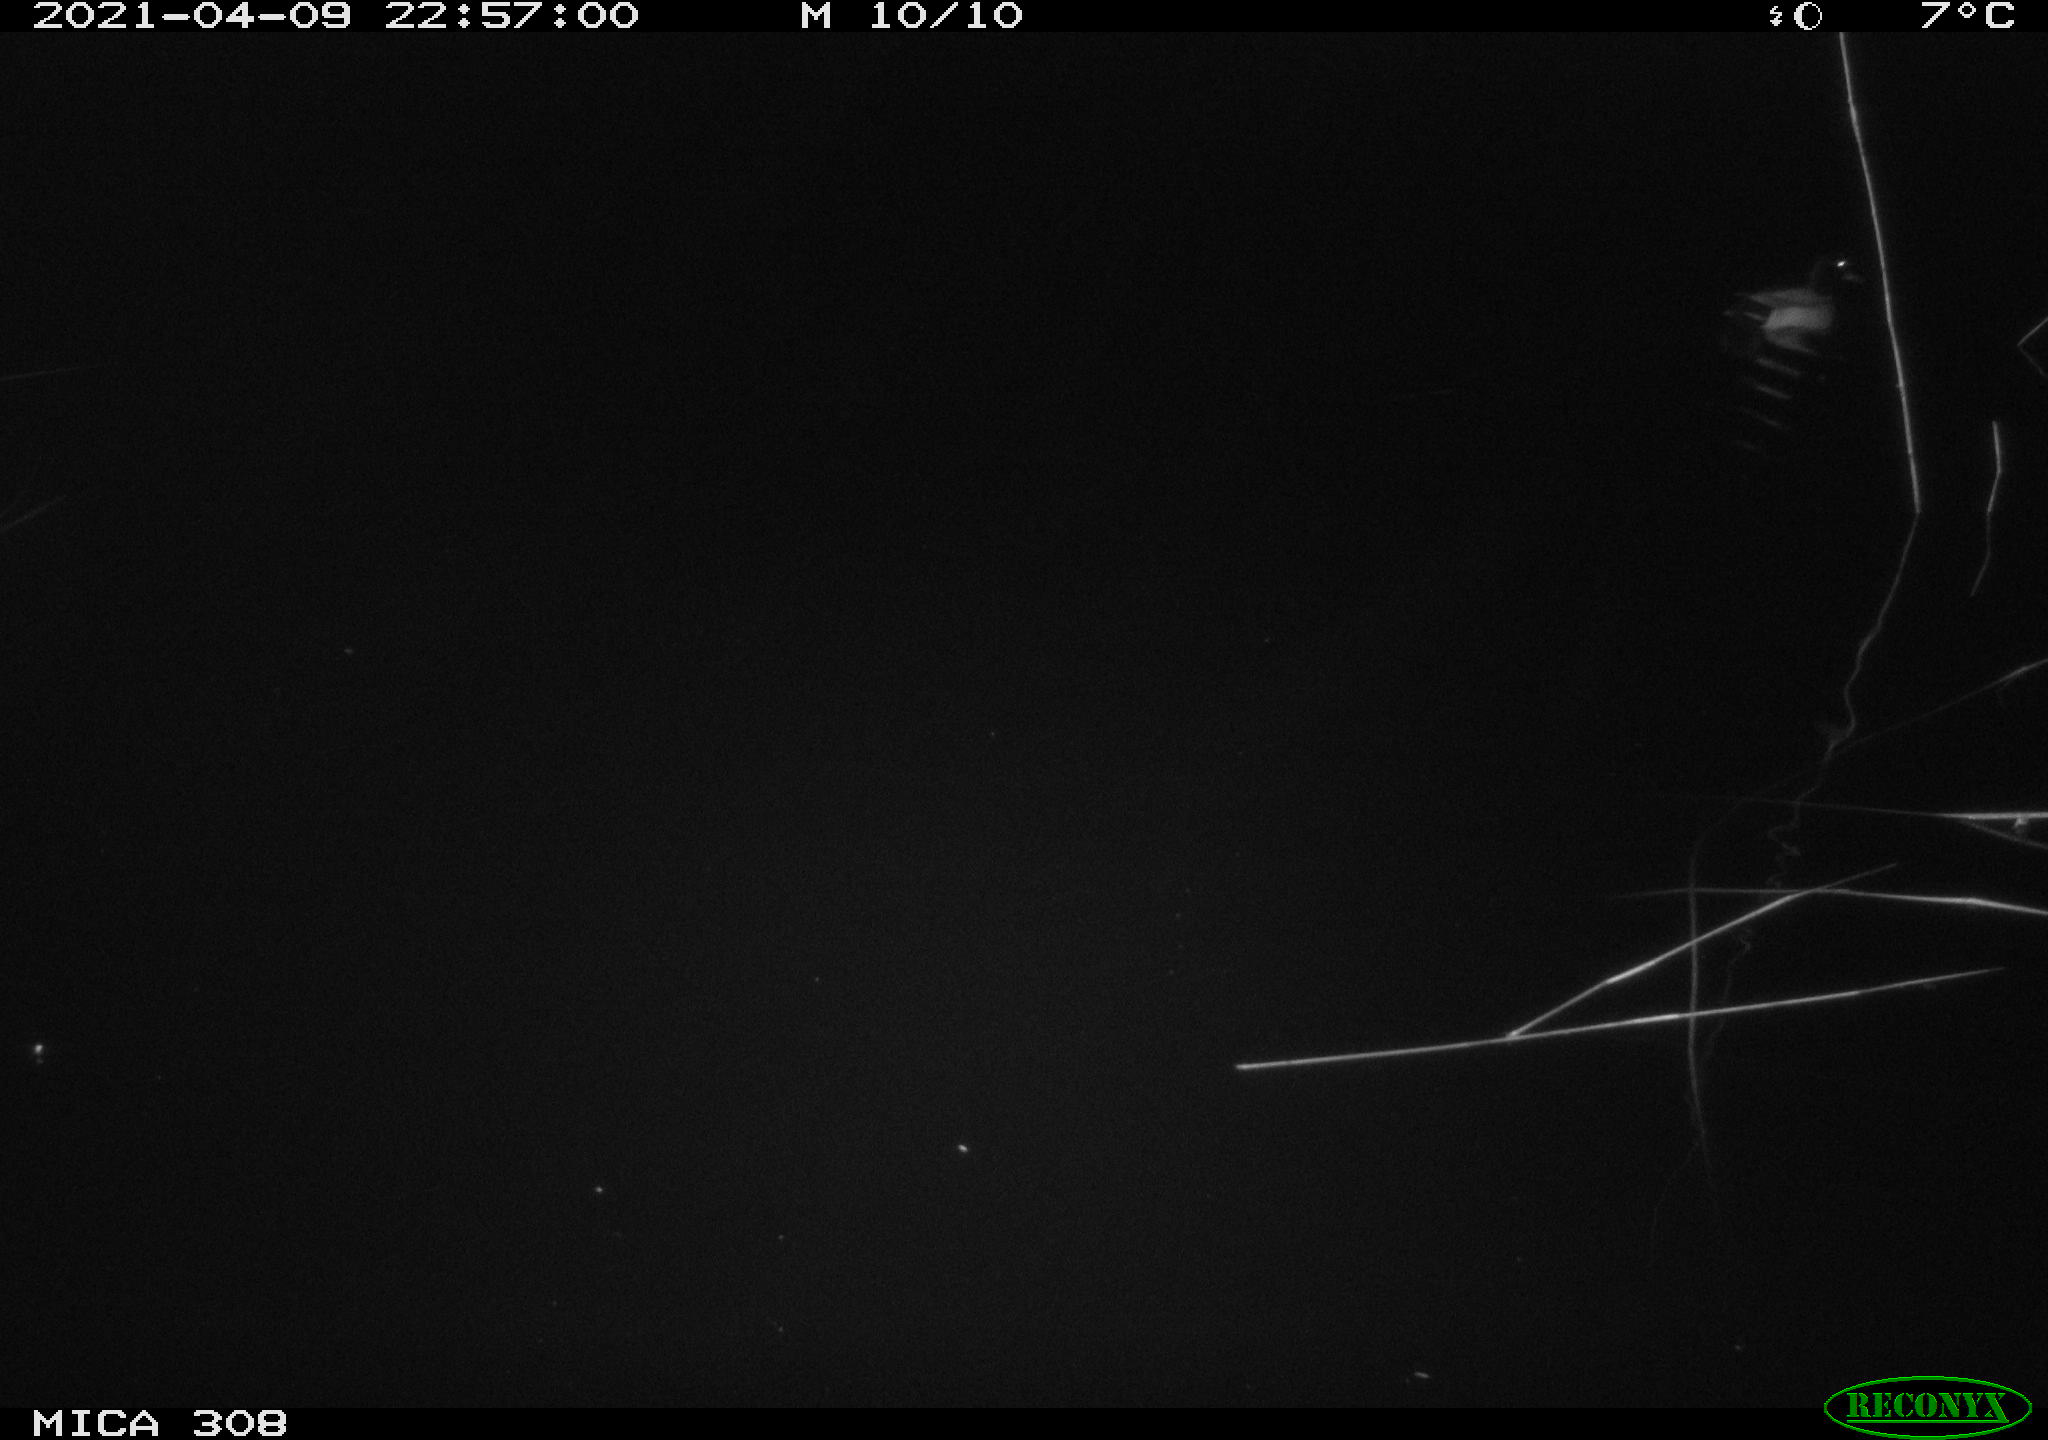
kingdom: Animalia
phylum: Chordata
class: Aves
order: Anseriformes
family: Anatidae
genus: Anas
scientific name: Anas platyrhynchos
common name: Mallard
